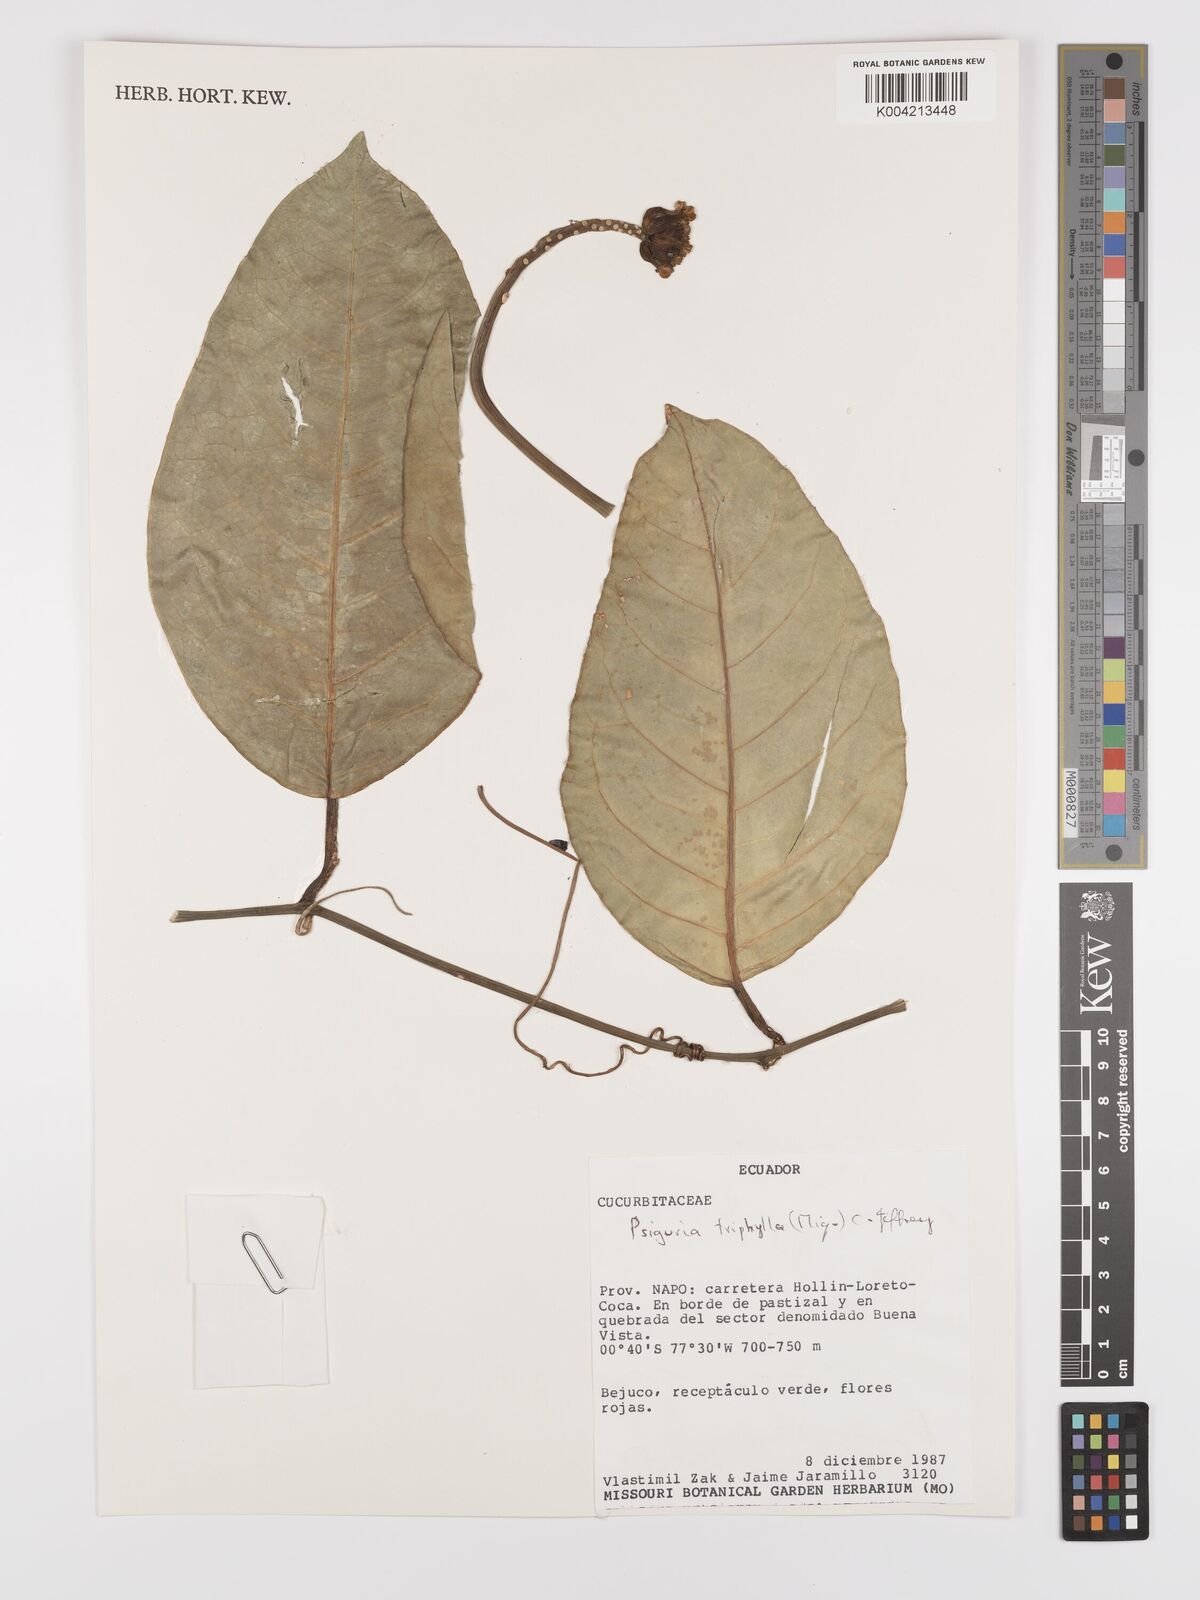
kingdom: Plantae
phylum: Tracheophyta
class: Magnoliopsida
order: Cucurbitales
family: Cucurbitaceae
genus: Psiguria
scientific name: Psiguria triphylla
